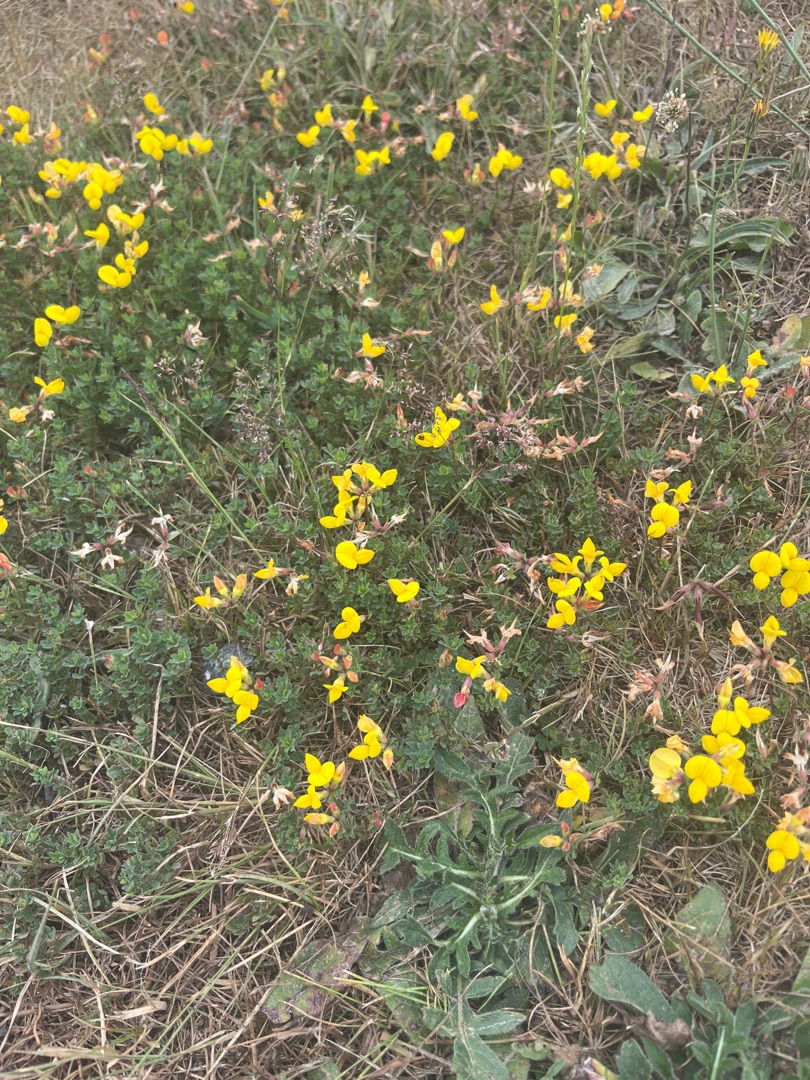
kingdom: Plantae
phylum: Tracheophyta
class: Magnoliopsida
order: Fabales
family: Fabaceae
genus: Lotus
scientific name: Lotus corniculatus
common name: Almindelig kællingetand
